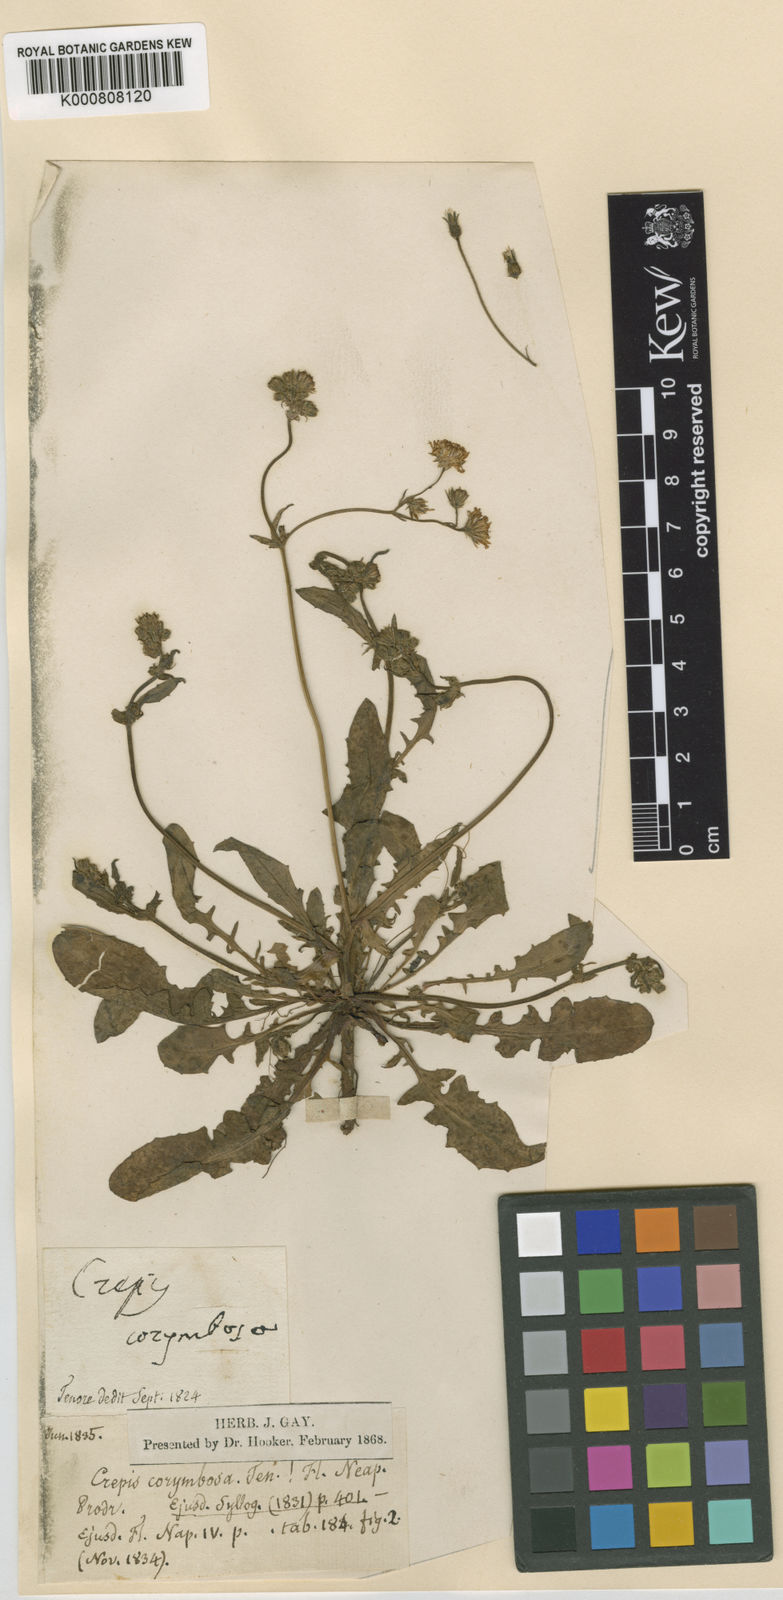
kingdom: Plantae
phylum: Tracheophyta
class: Magnoliopsida
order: Asterales
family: Asteraceae
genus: Crepis
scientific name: Crepis neglecta
